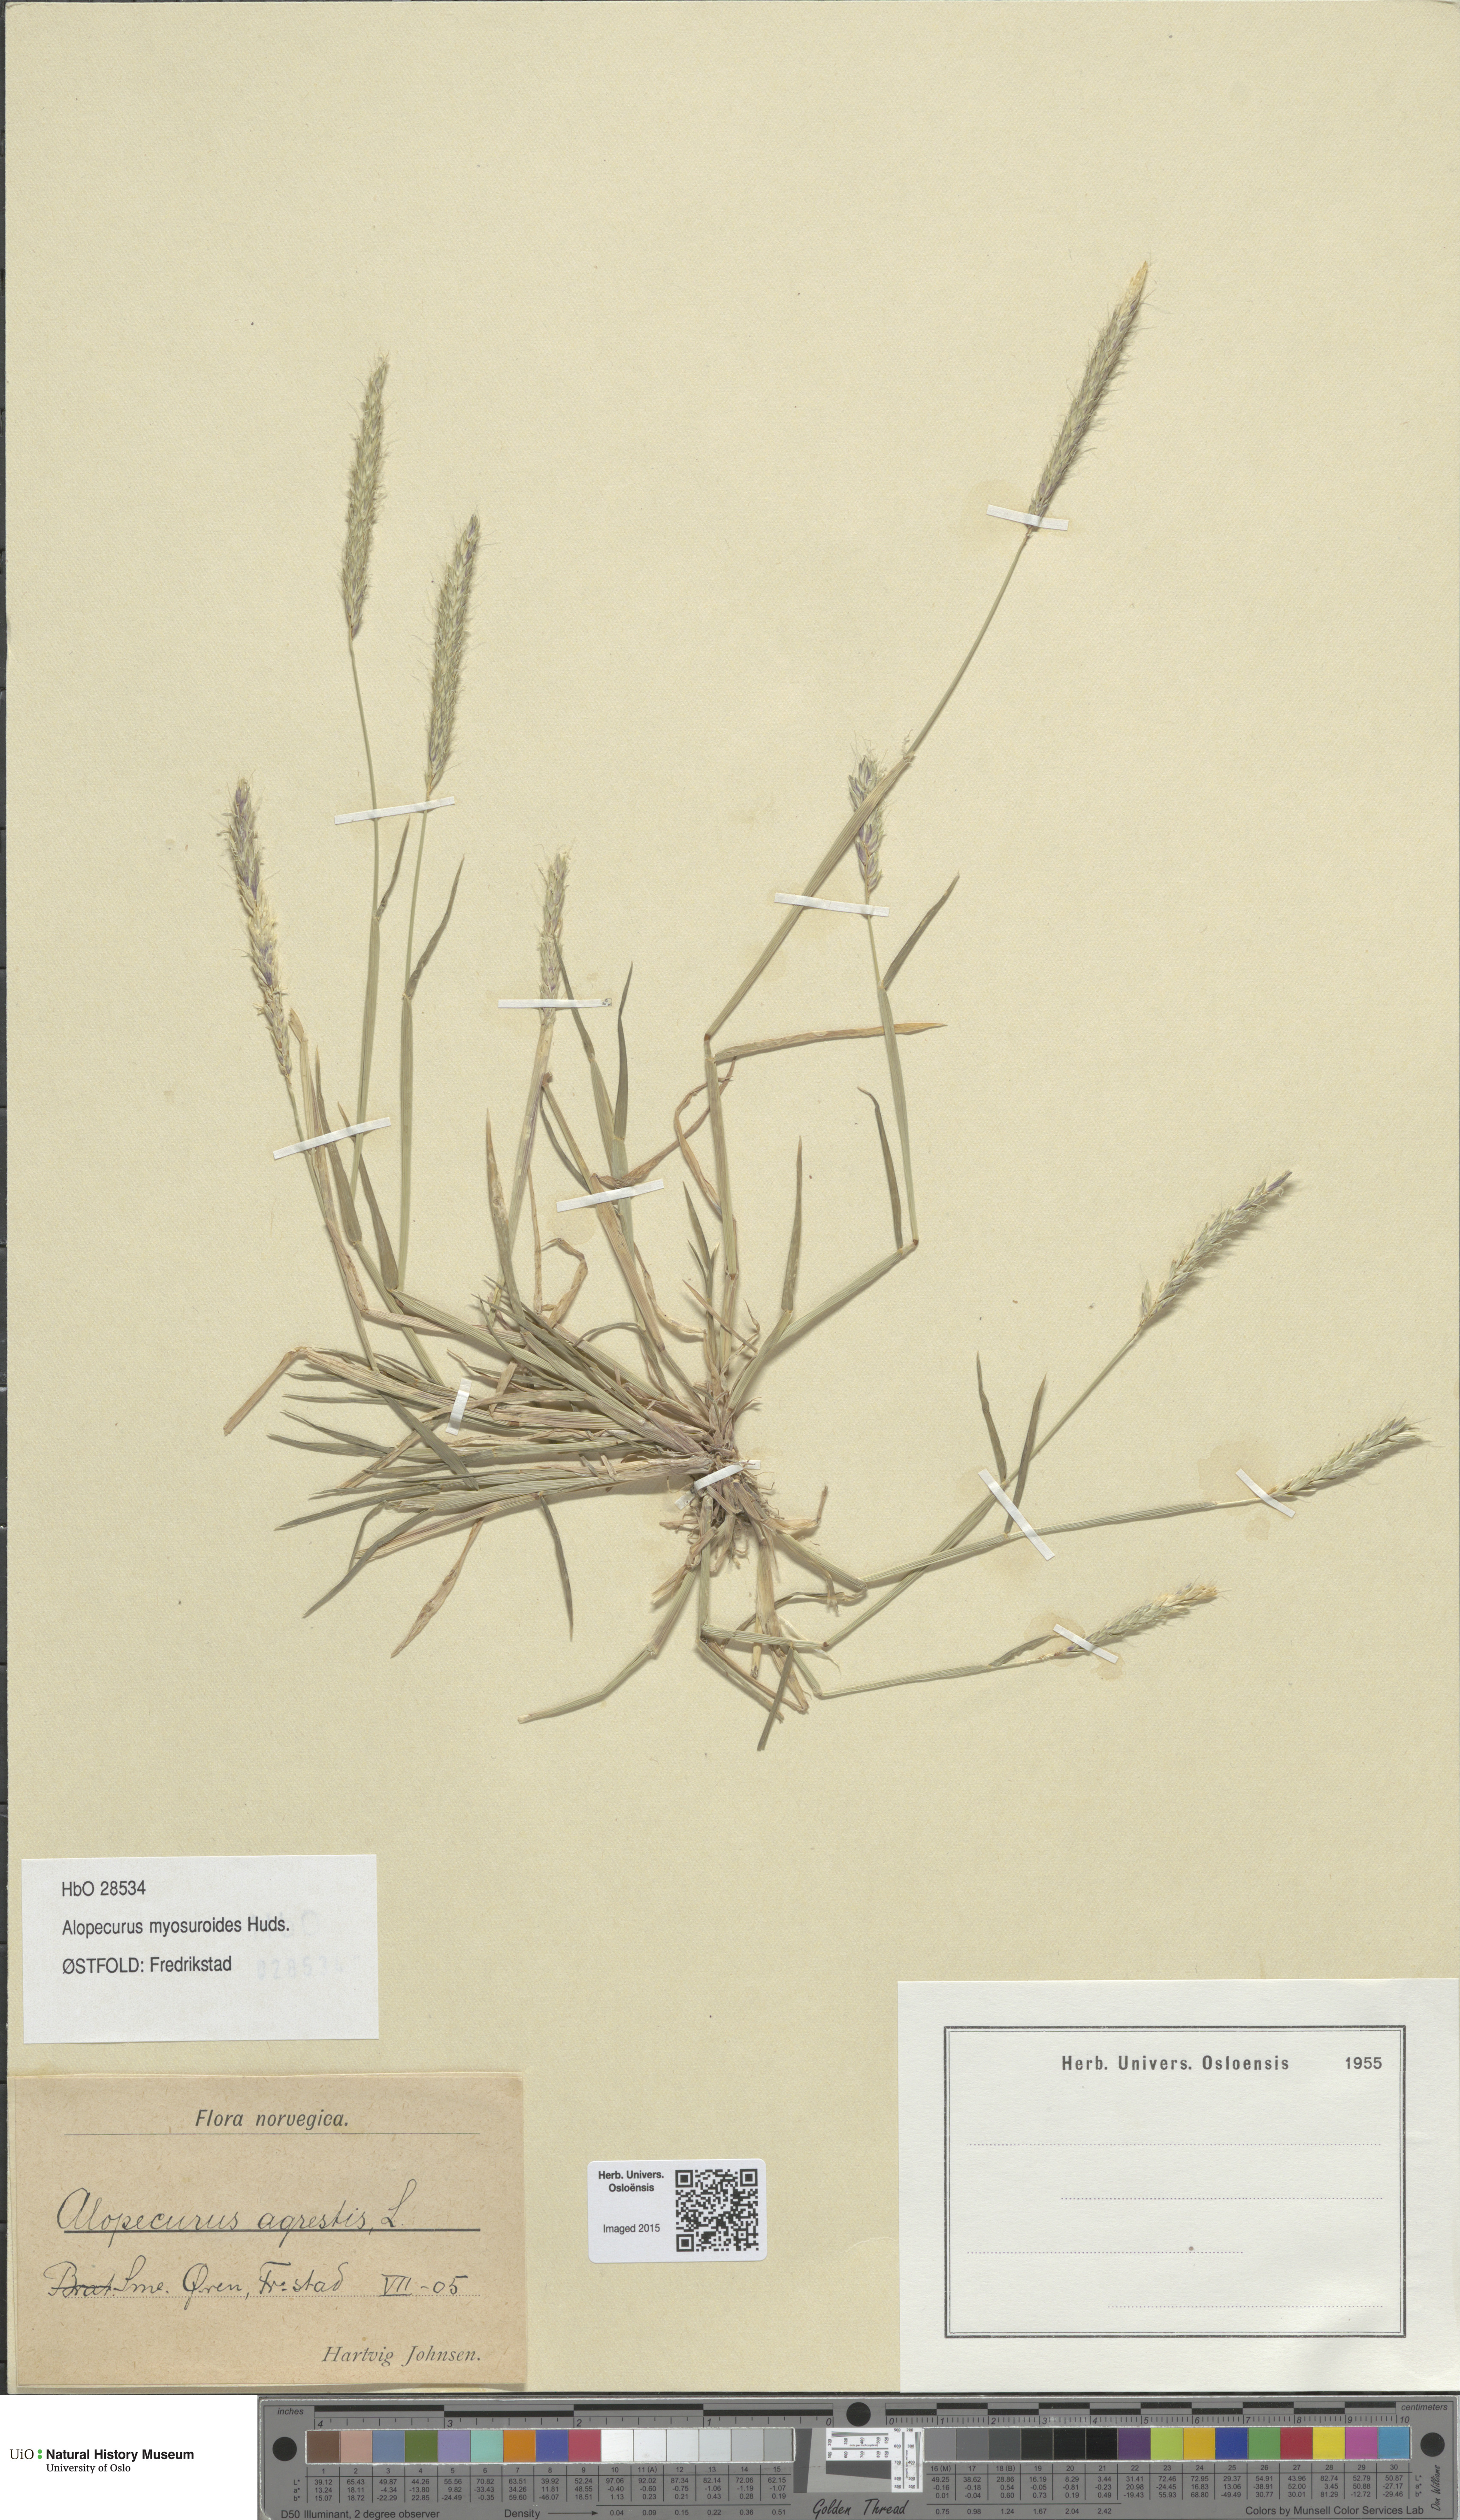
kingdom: Plantae
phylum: Tracheophyta
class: Liliopsida
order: Poales
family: Poaceae
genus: Alopecurus
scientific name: Alopecurus myosuroides
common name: Black-grass
